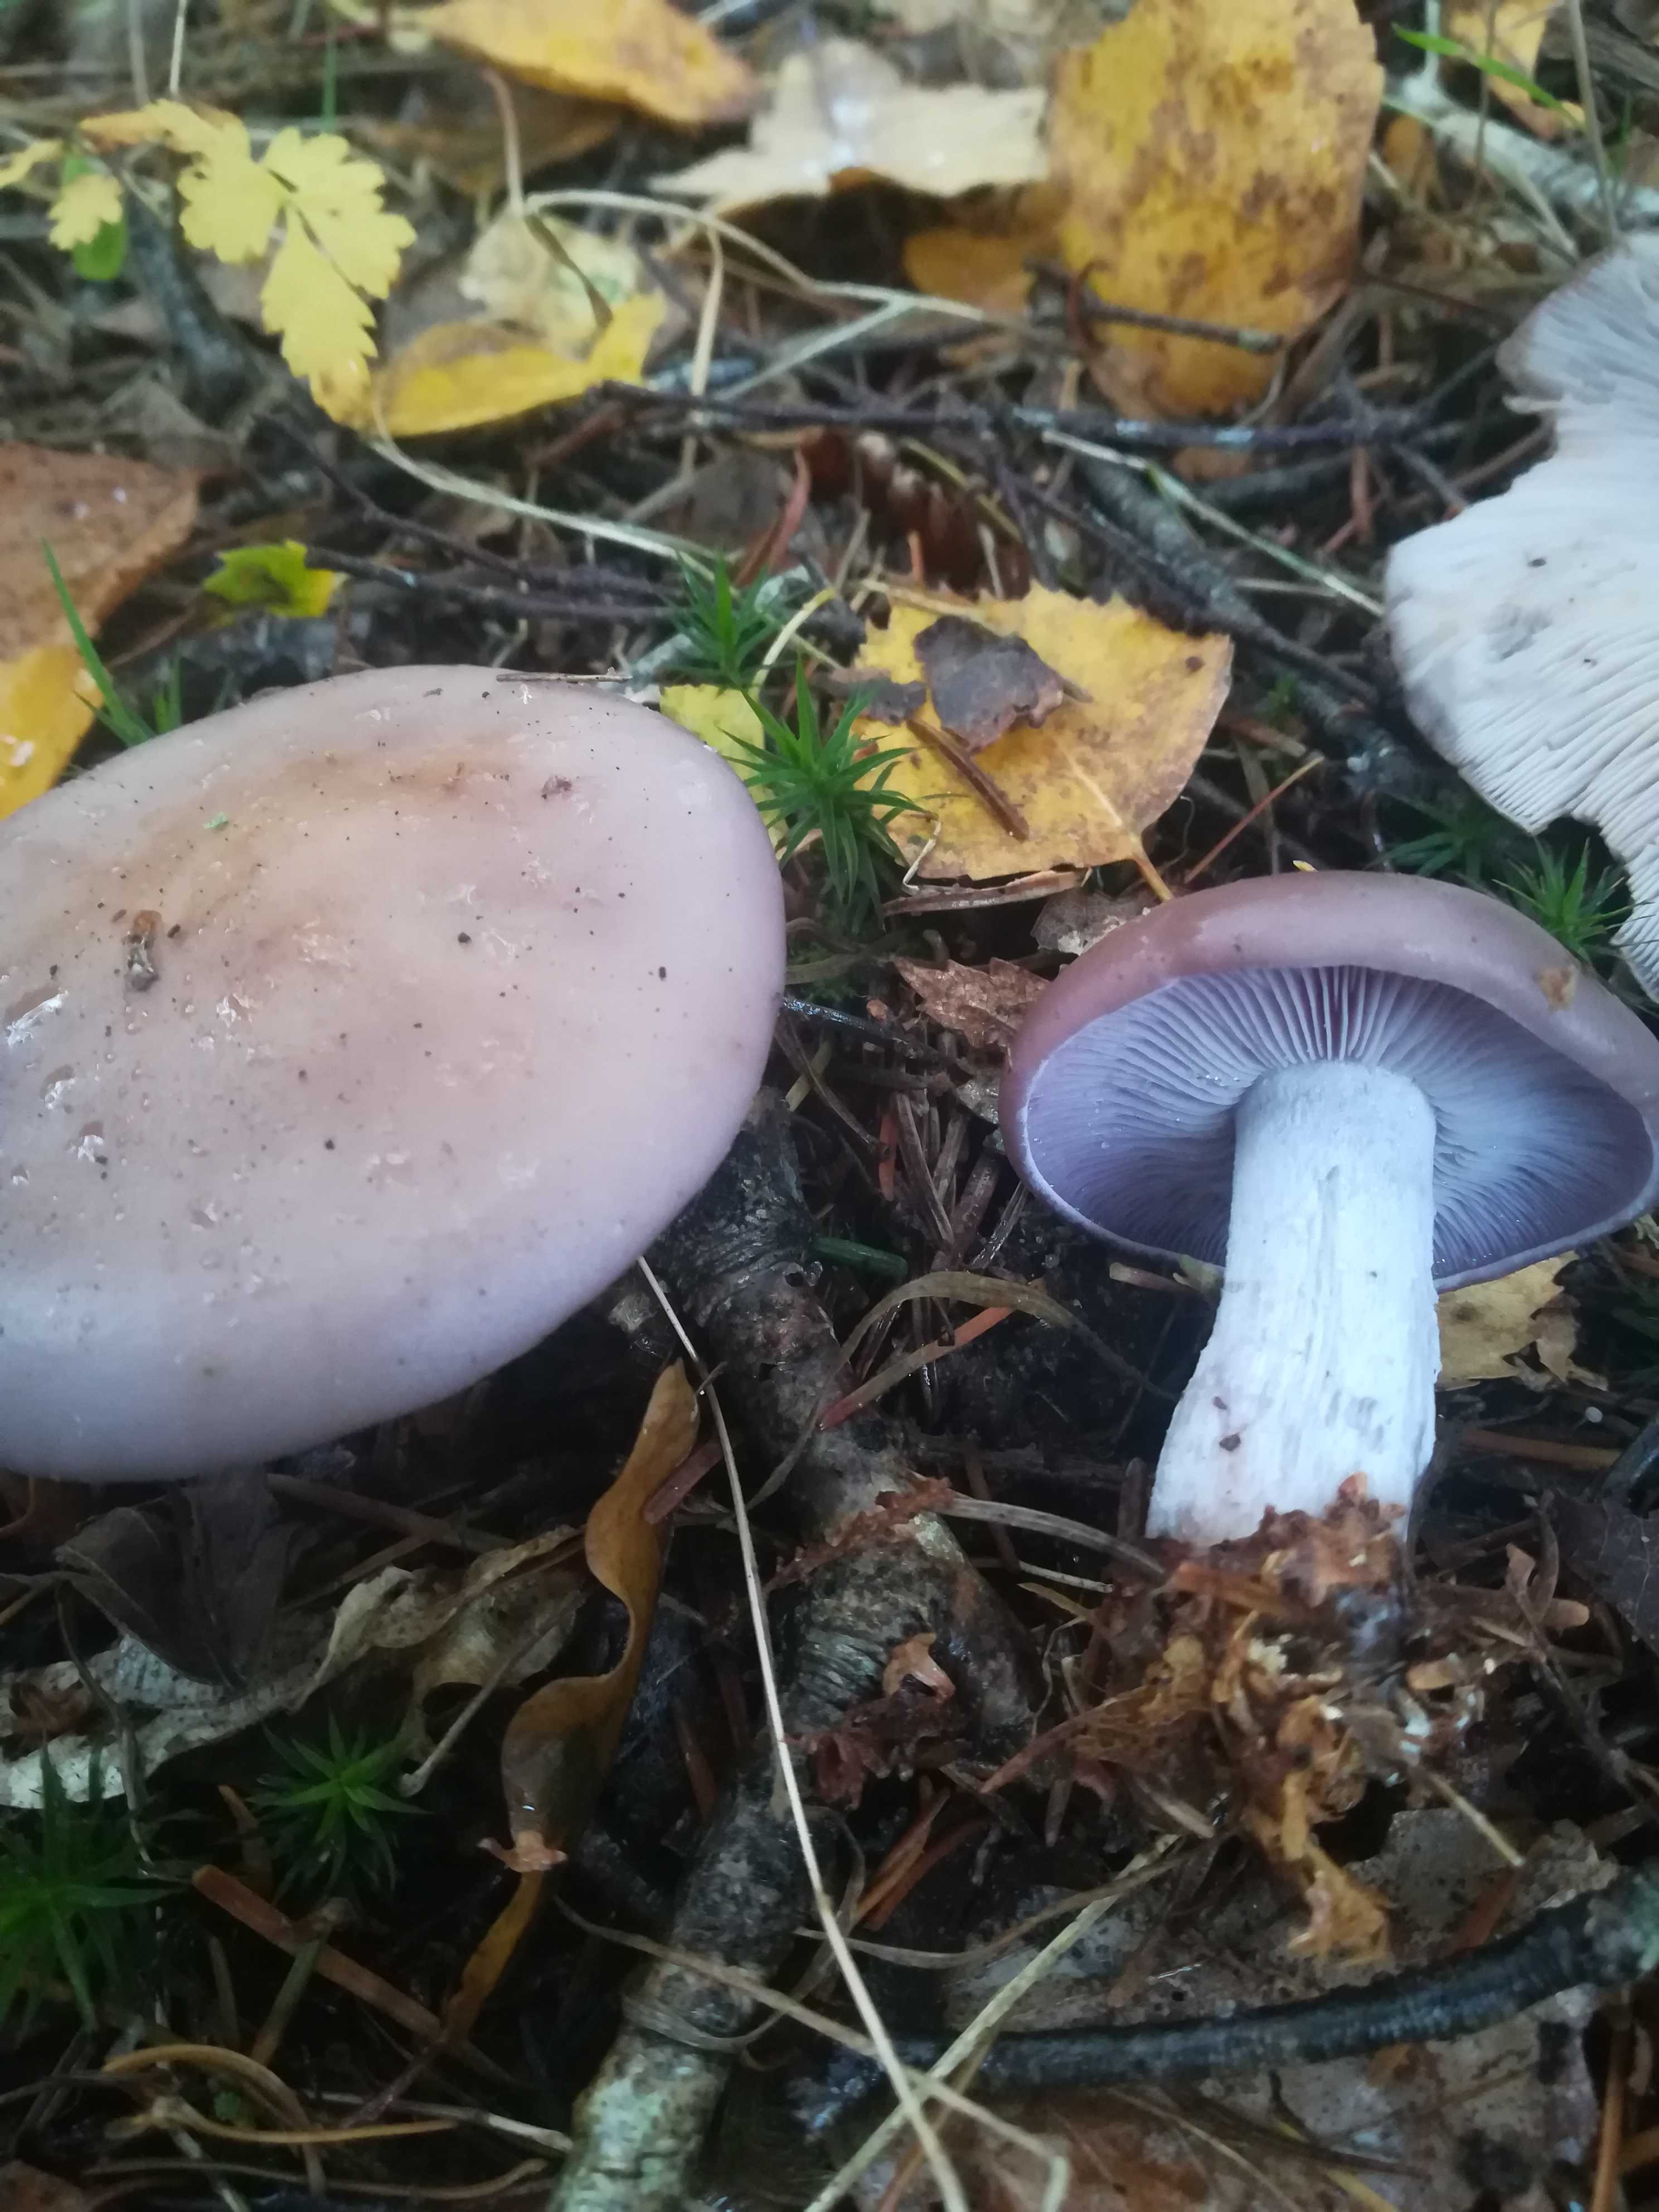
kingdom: Fungi
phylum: Basidiomycota
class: Agaricomycetes
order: Agaricales
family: Tricholomataceae
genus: Lepista
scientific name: Lepista nuda
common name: violet hekseringshat
